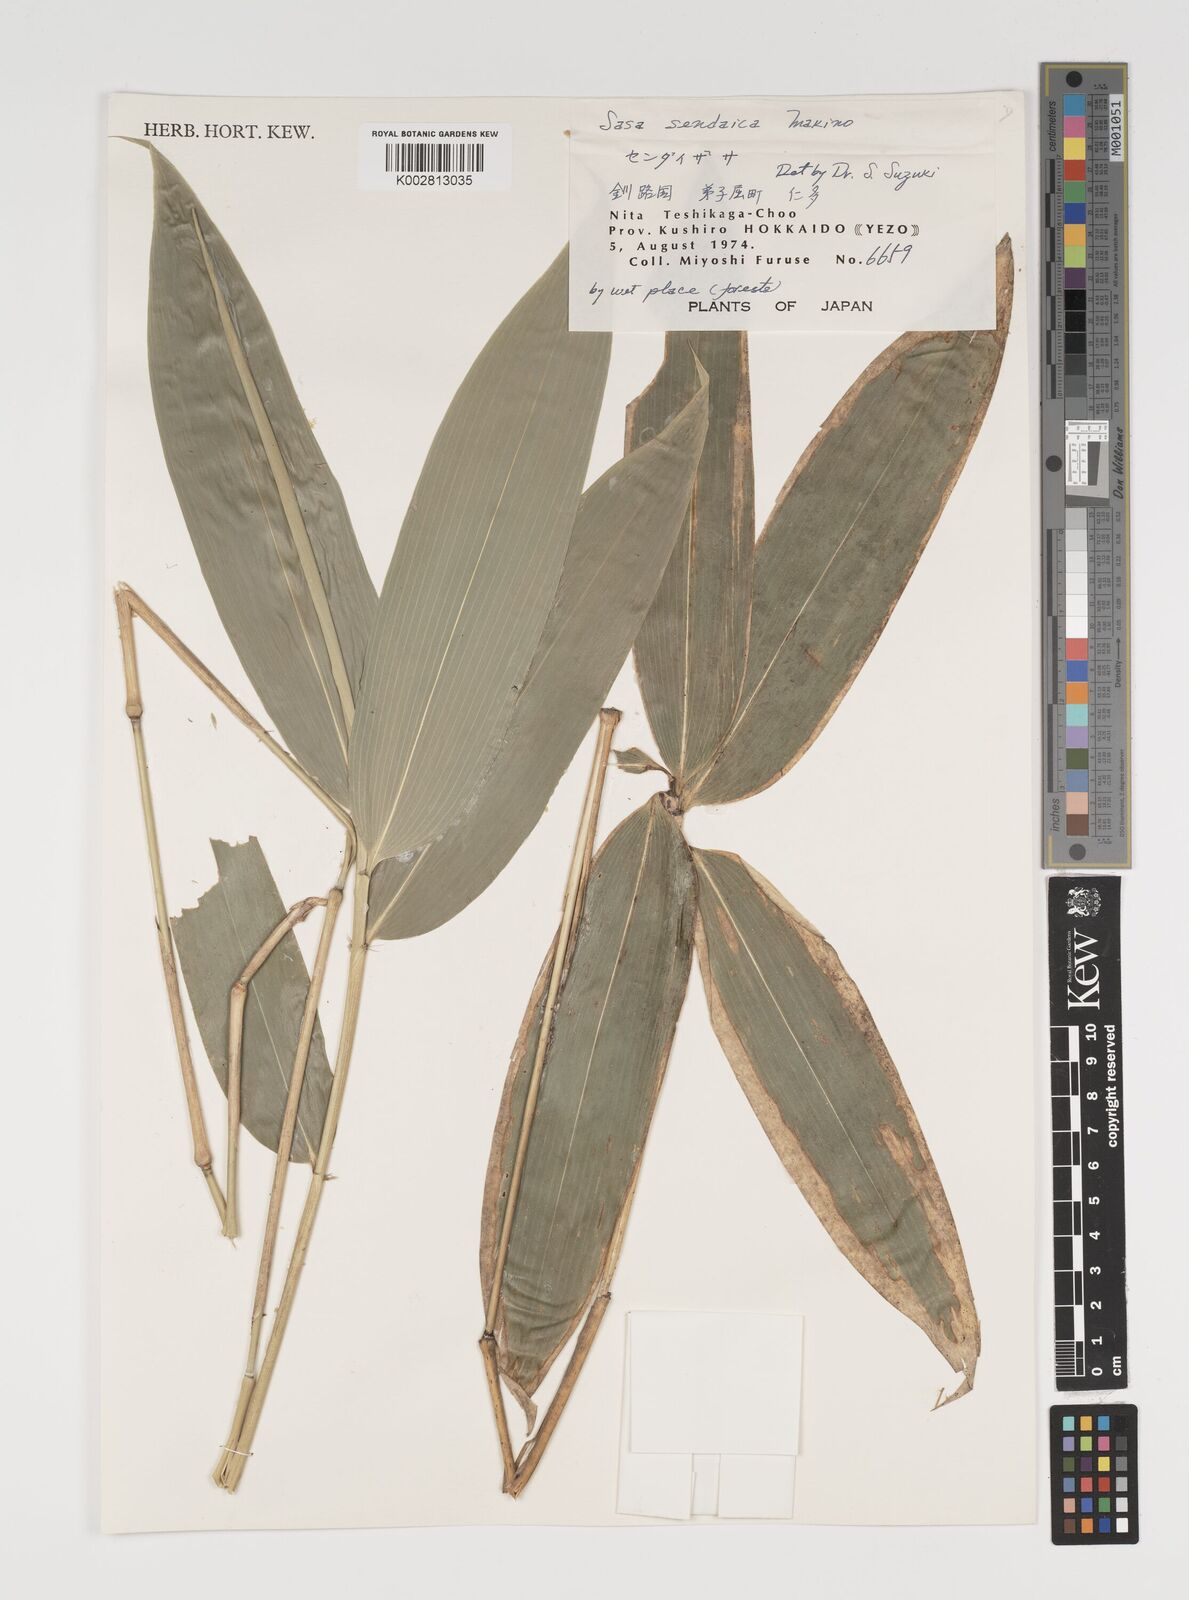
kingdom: Plantae
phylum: Tracheophyta
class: Liliopsida
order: Poales
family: Poaceae
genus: Sasa
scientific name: Sasa chartacea
